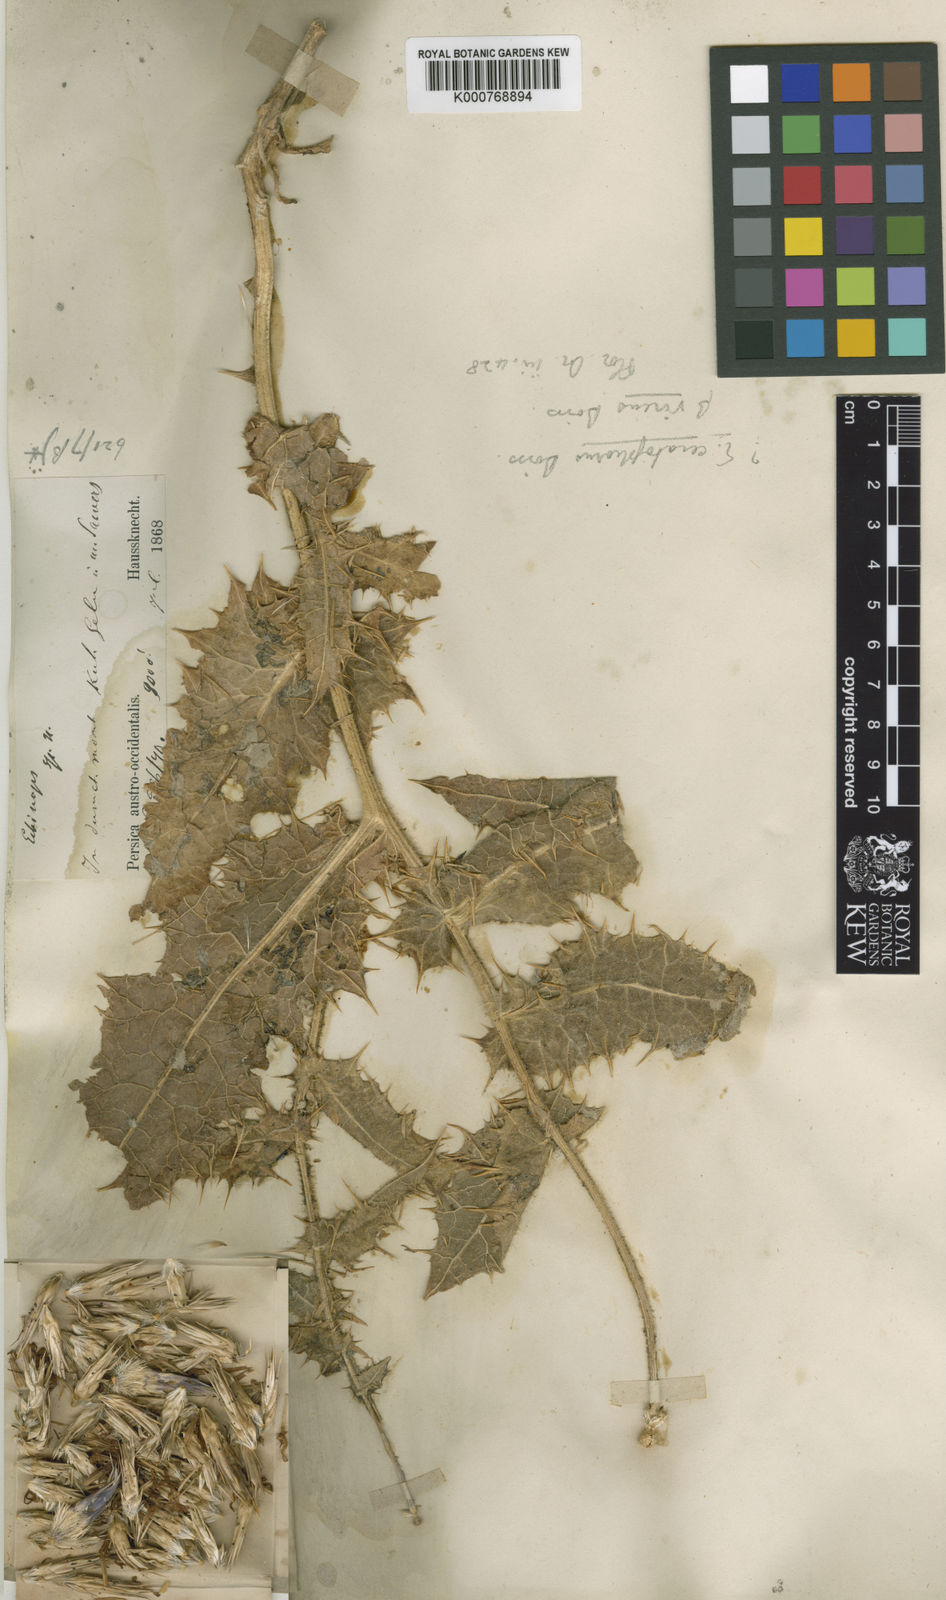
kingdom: Plantae
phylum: Tracheophyta
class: Magnoliopsida
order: Asterales
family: Asteraceae
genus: Echinops
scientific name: Echinops ceratophorus
